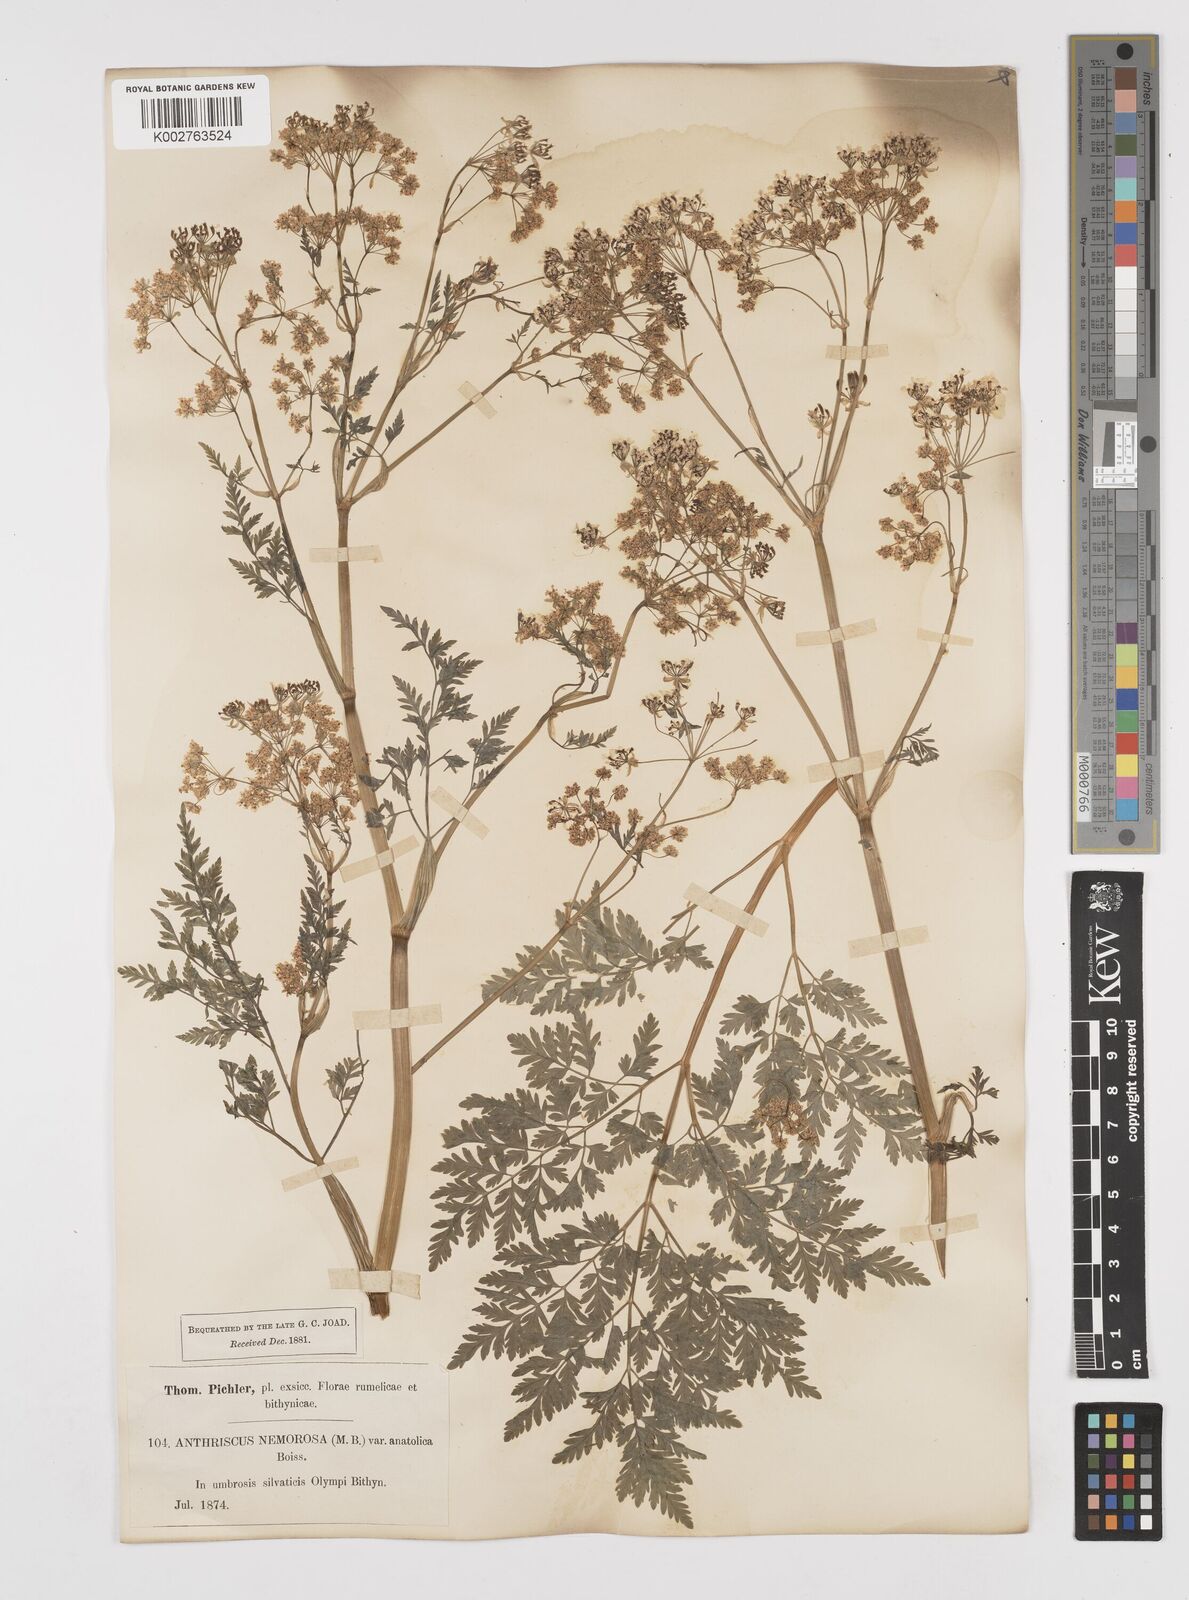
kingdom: Plantae
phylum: Tracheophyta
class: Magnoliopsida
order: Apiales
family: Apiaceae
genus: Anthriscus
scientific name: Anthriscus sylvestris
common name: Cow parsley
